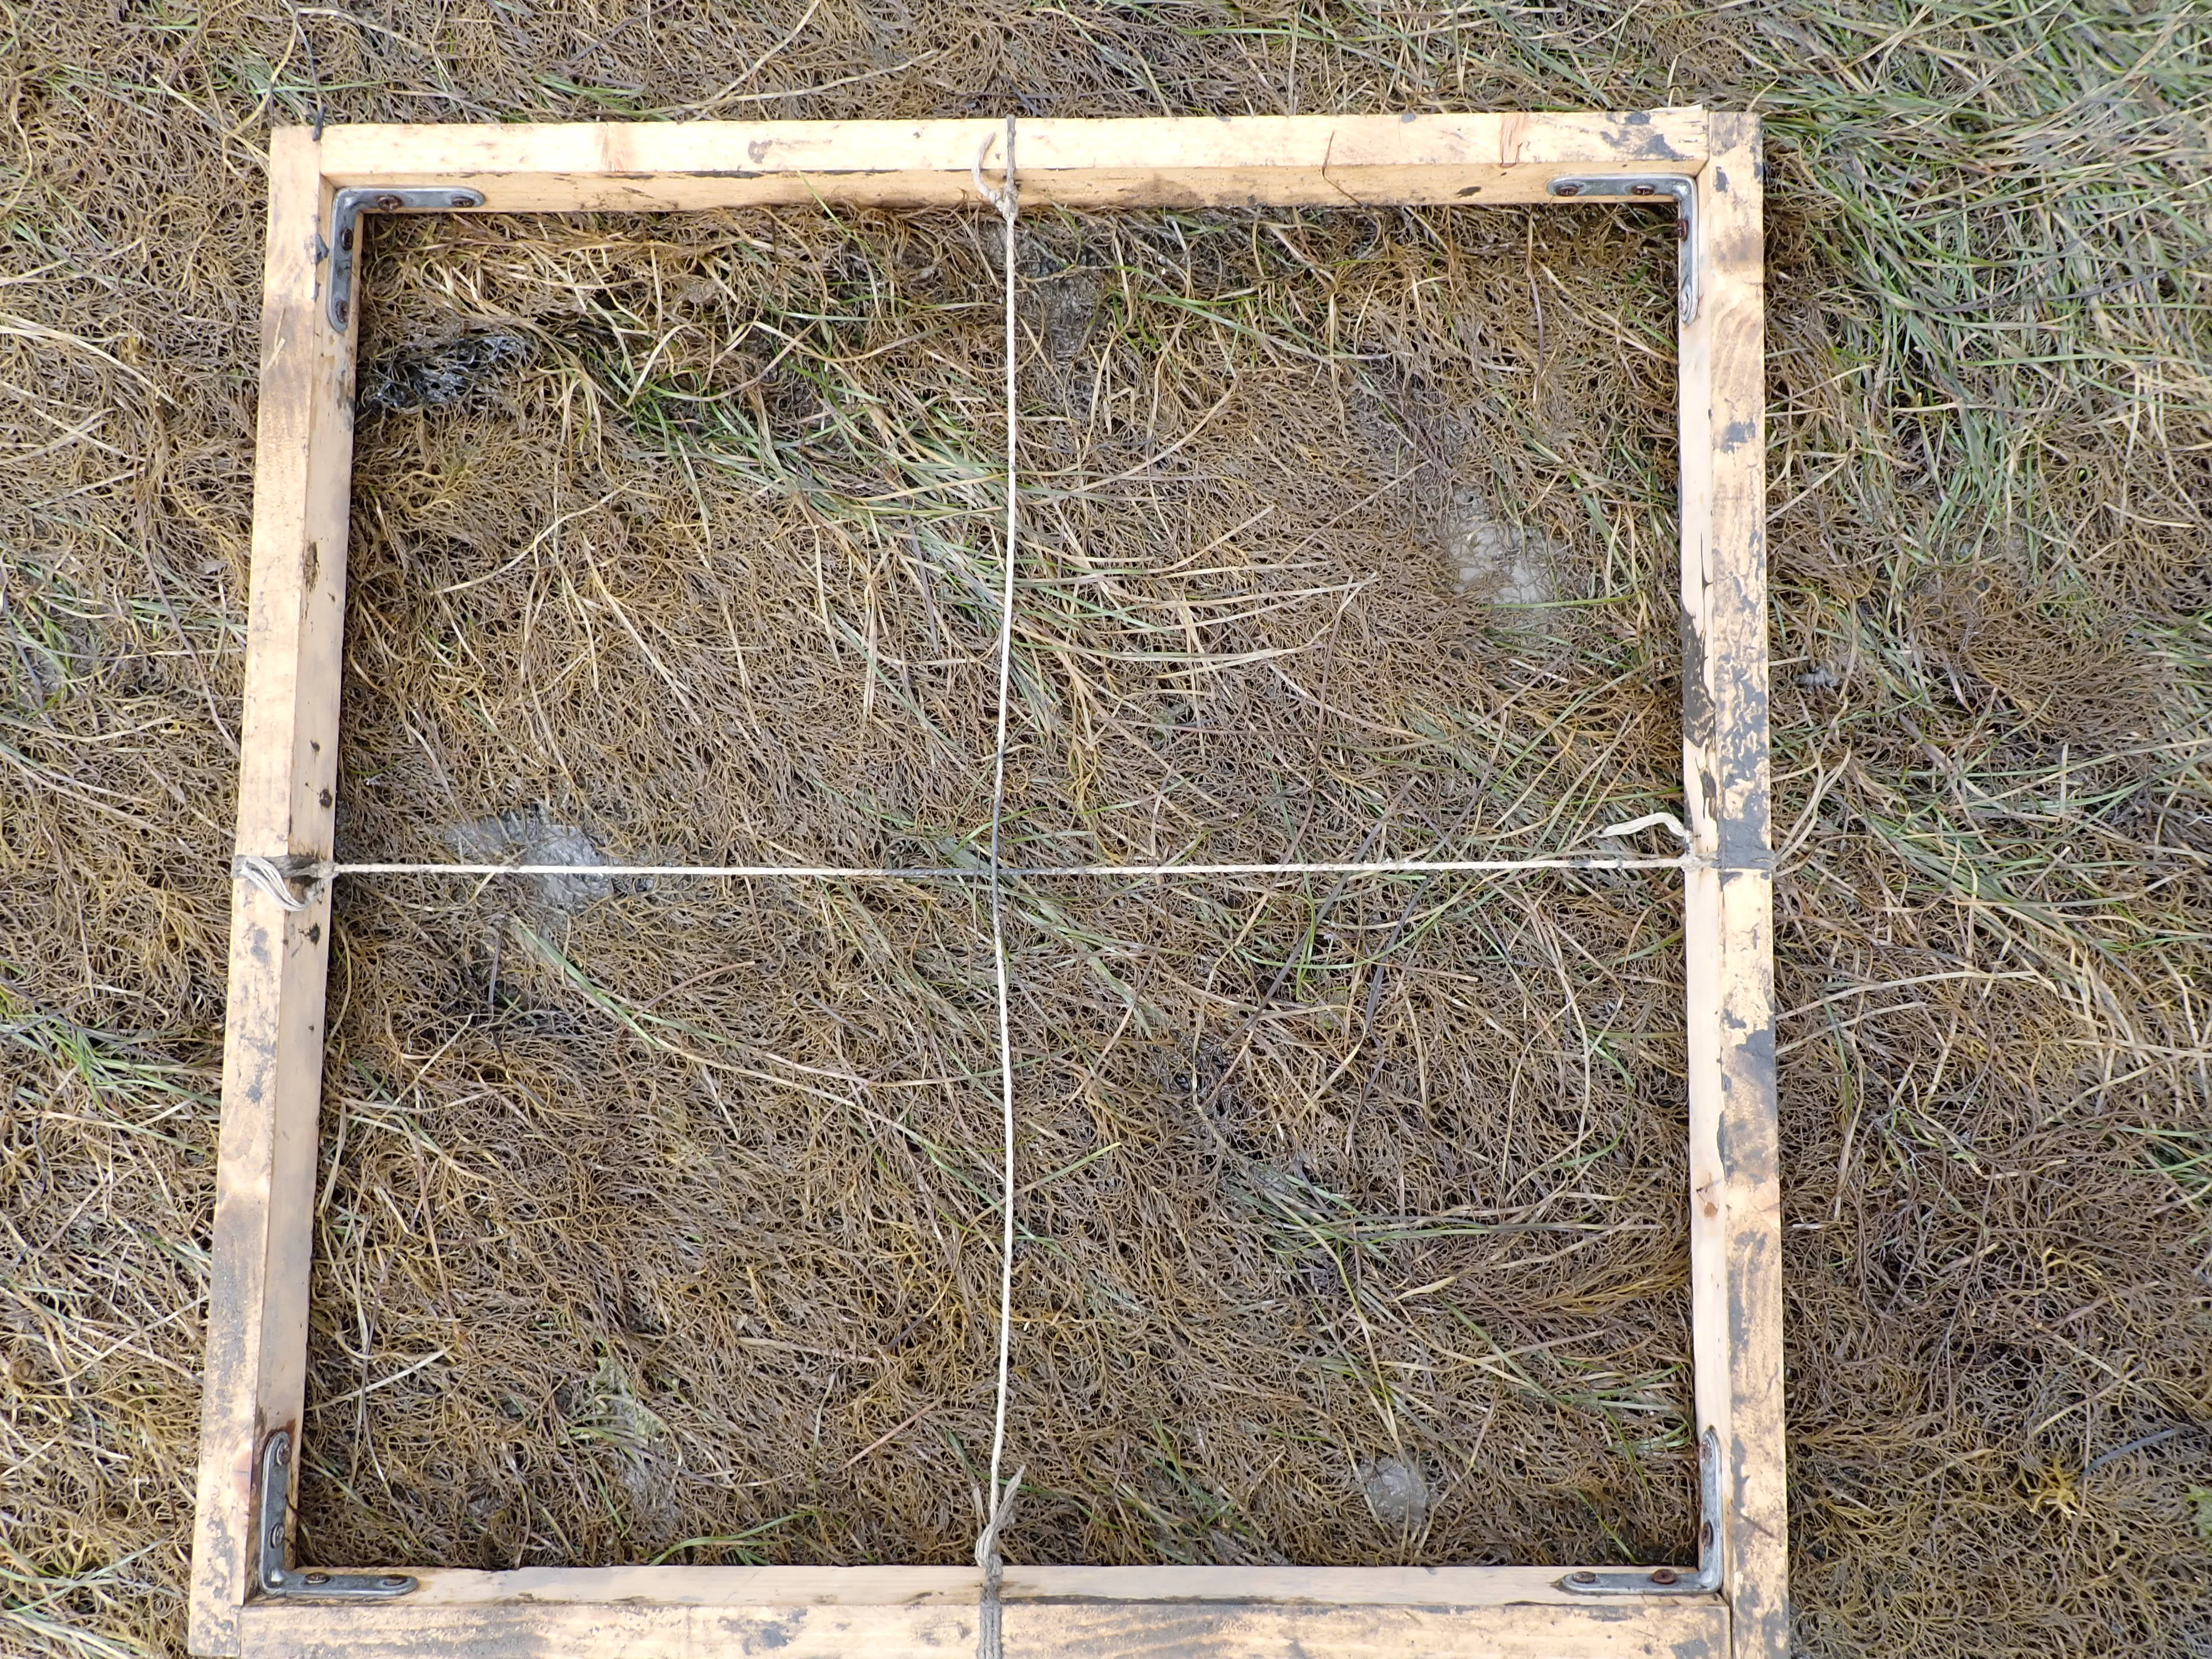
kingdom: Plantae
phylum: Tracheophyta
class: Liliopsida
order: Alismatales
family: Zosteraceae
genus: Zostera
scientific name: Zostera noltii
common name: Dwarf eelgrass
